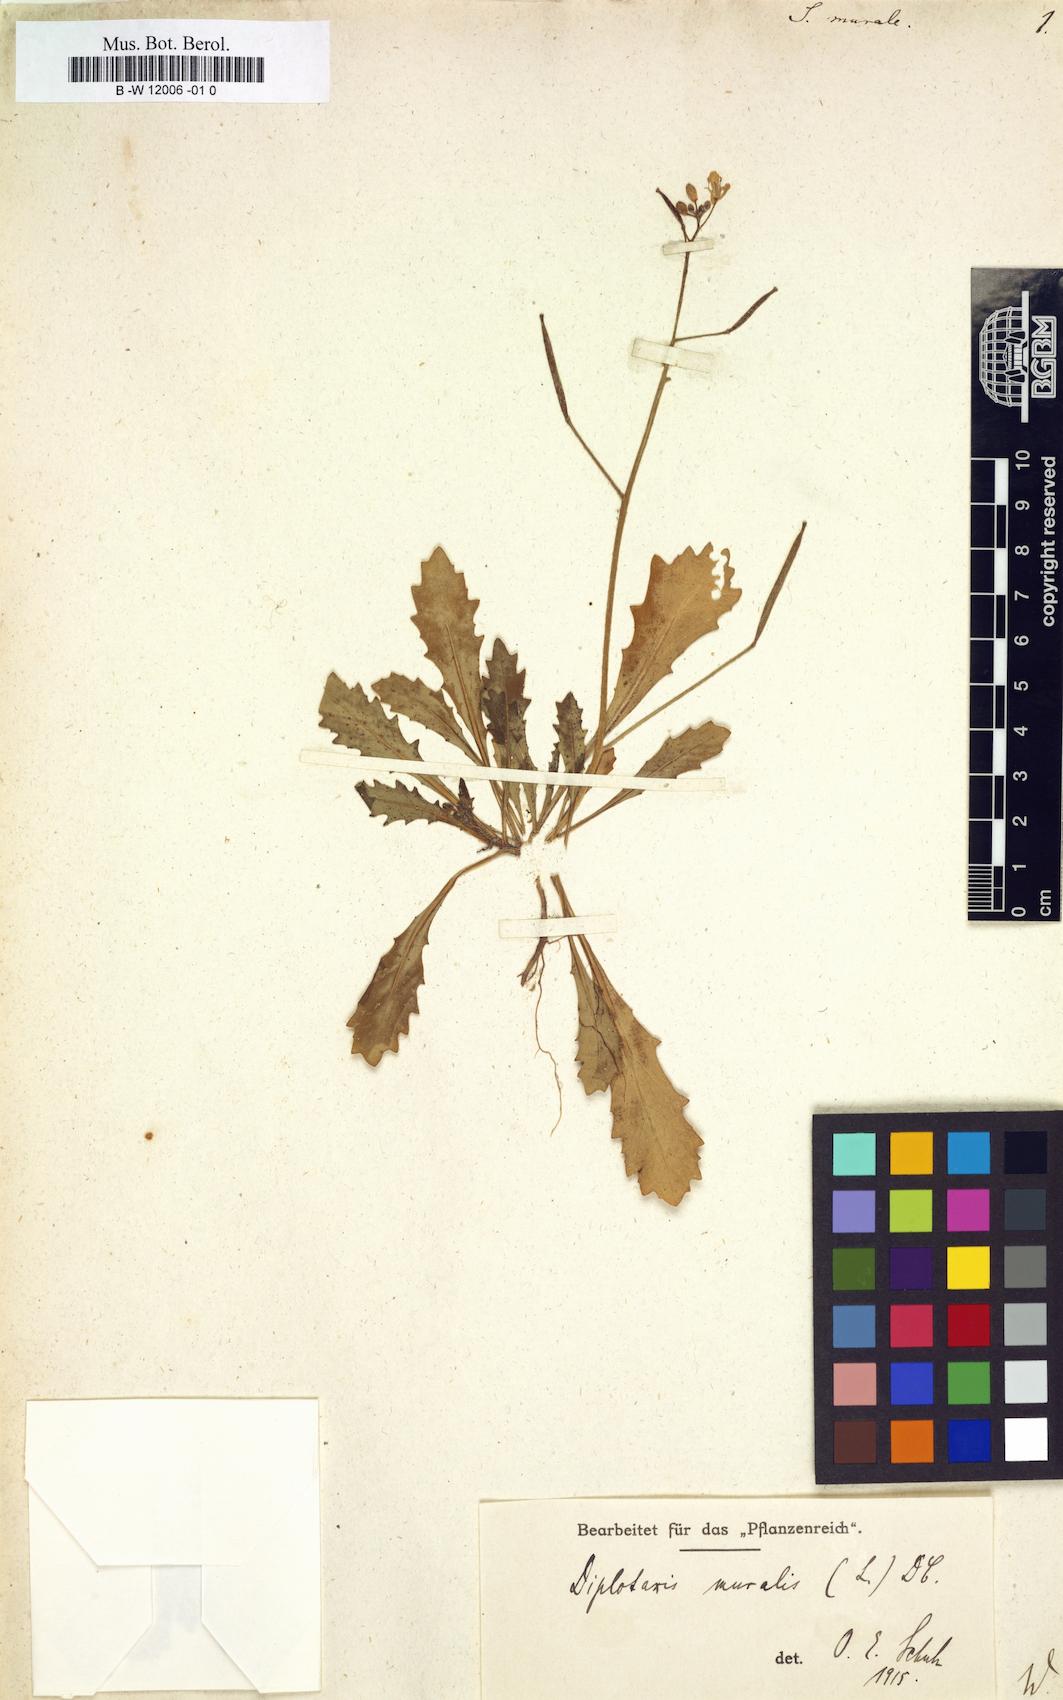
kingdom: Plantae
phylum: Tracheophyta
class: Magnoliopsida
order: Brassicales
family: Brassicaceae
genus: Sisymbrium
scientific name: Sisymbrium murale
